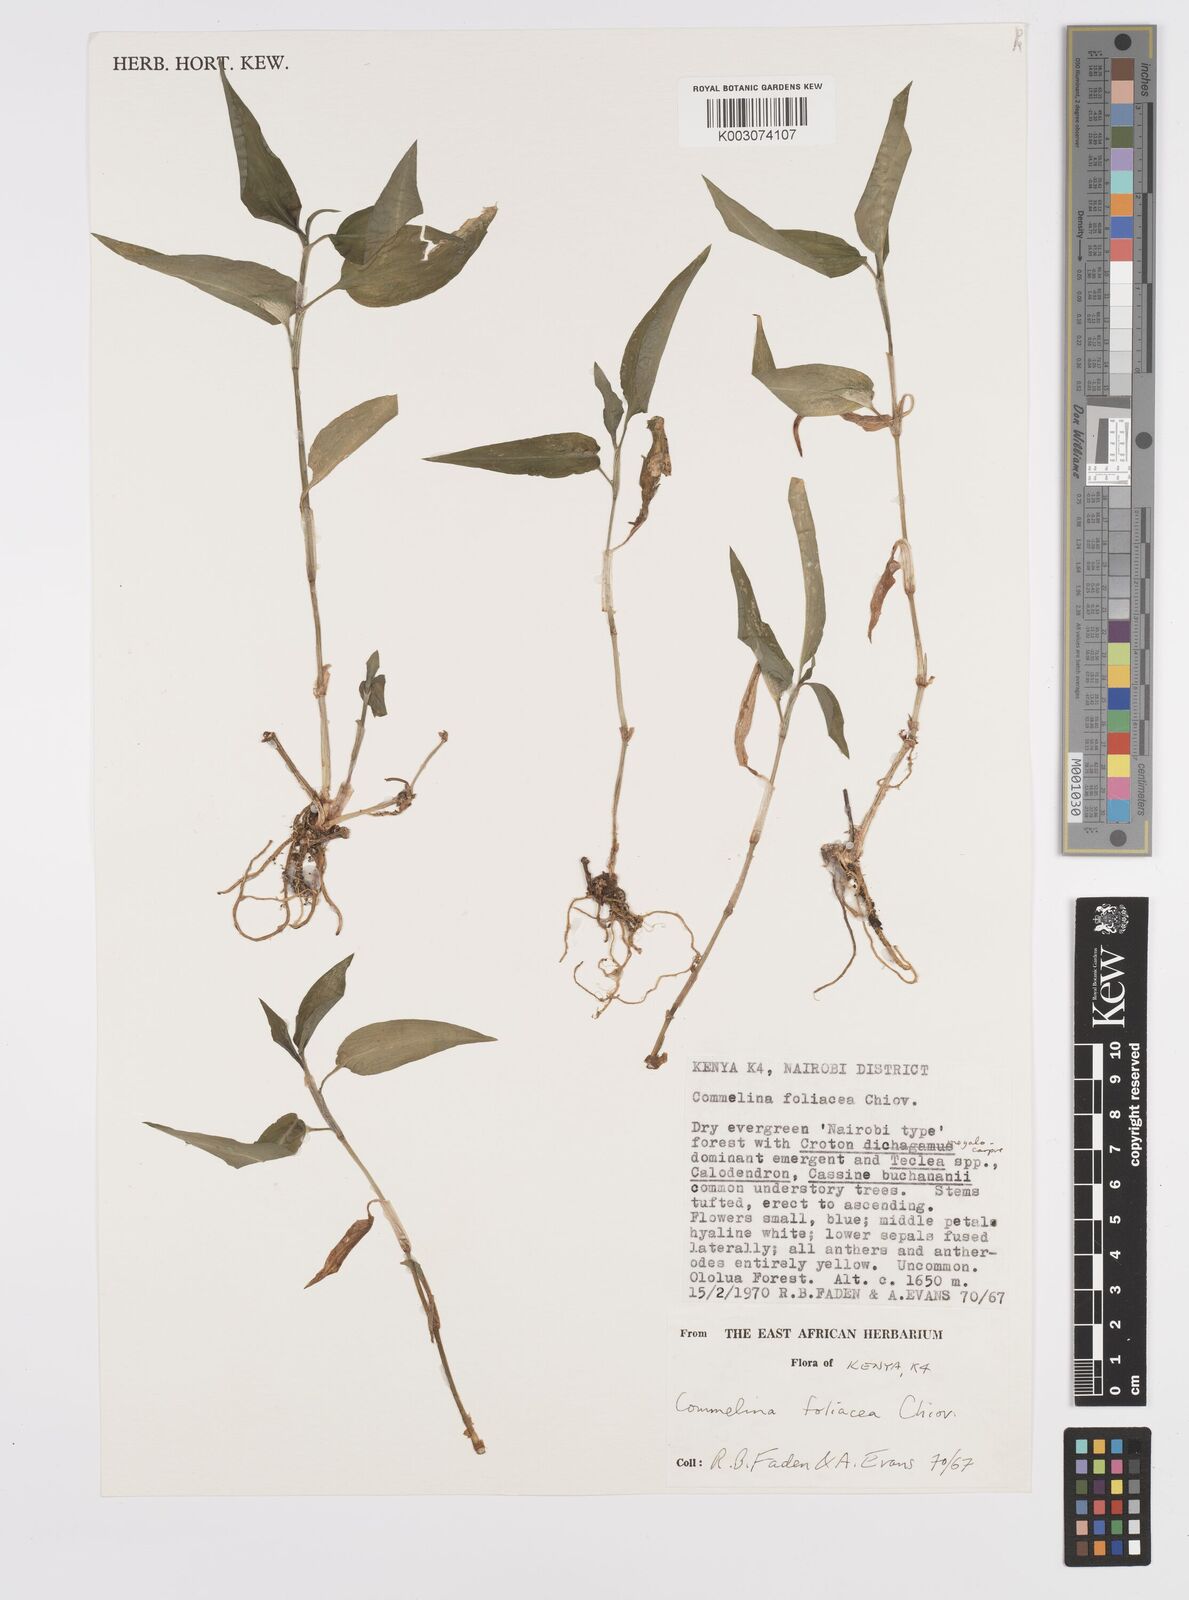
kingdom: Plantae
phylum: Tracheophyta
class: Liliopsida
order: Commelinales
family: Commelinaceae
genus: Commelina
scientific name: Commelina foliacea
